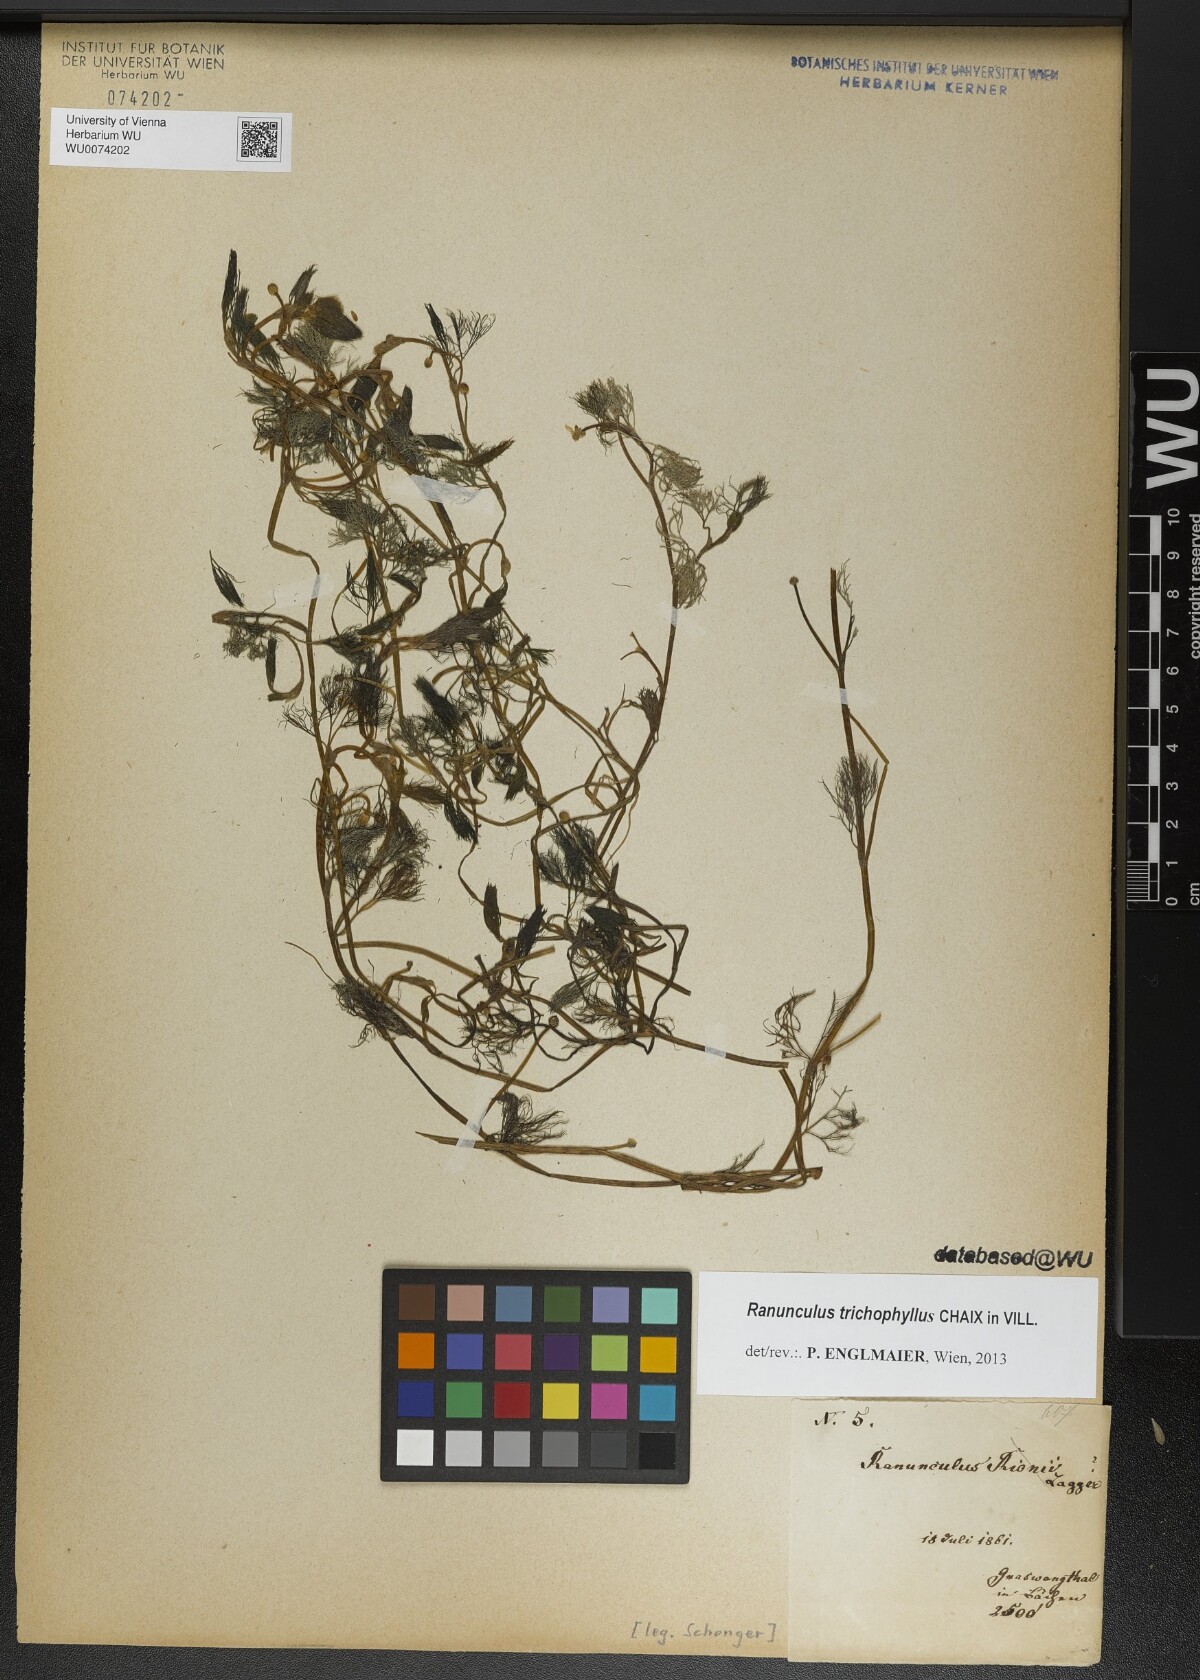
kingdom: Plantae
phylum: Tracheophyta
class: Magnoliopsida
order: Ranunculales
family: Ranunculaceae
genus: Ranunculus
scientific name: Ranunculus trichophyllus
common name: Thread-leaved water-crowfoot
